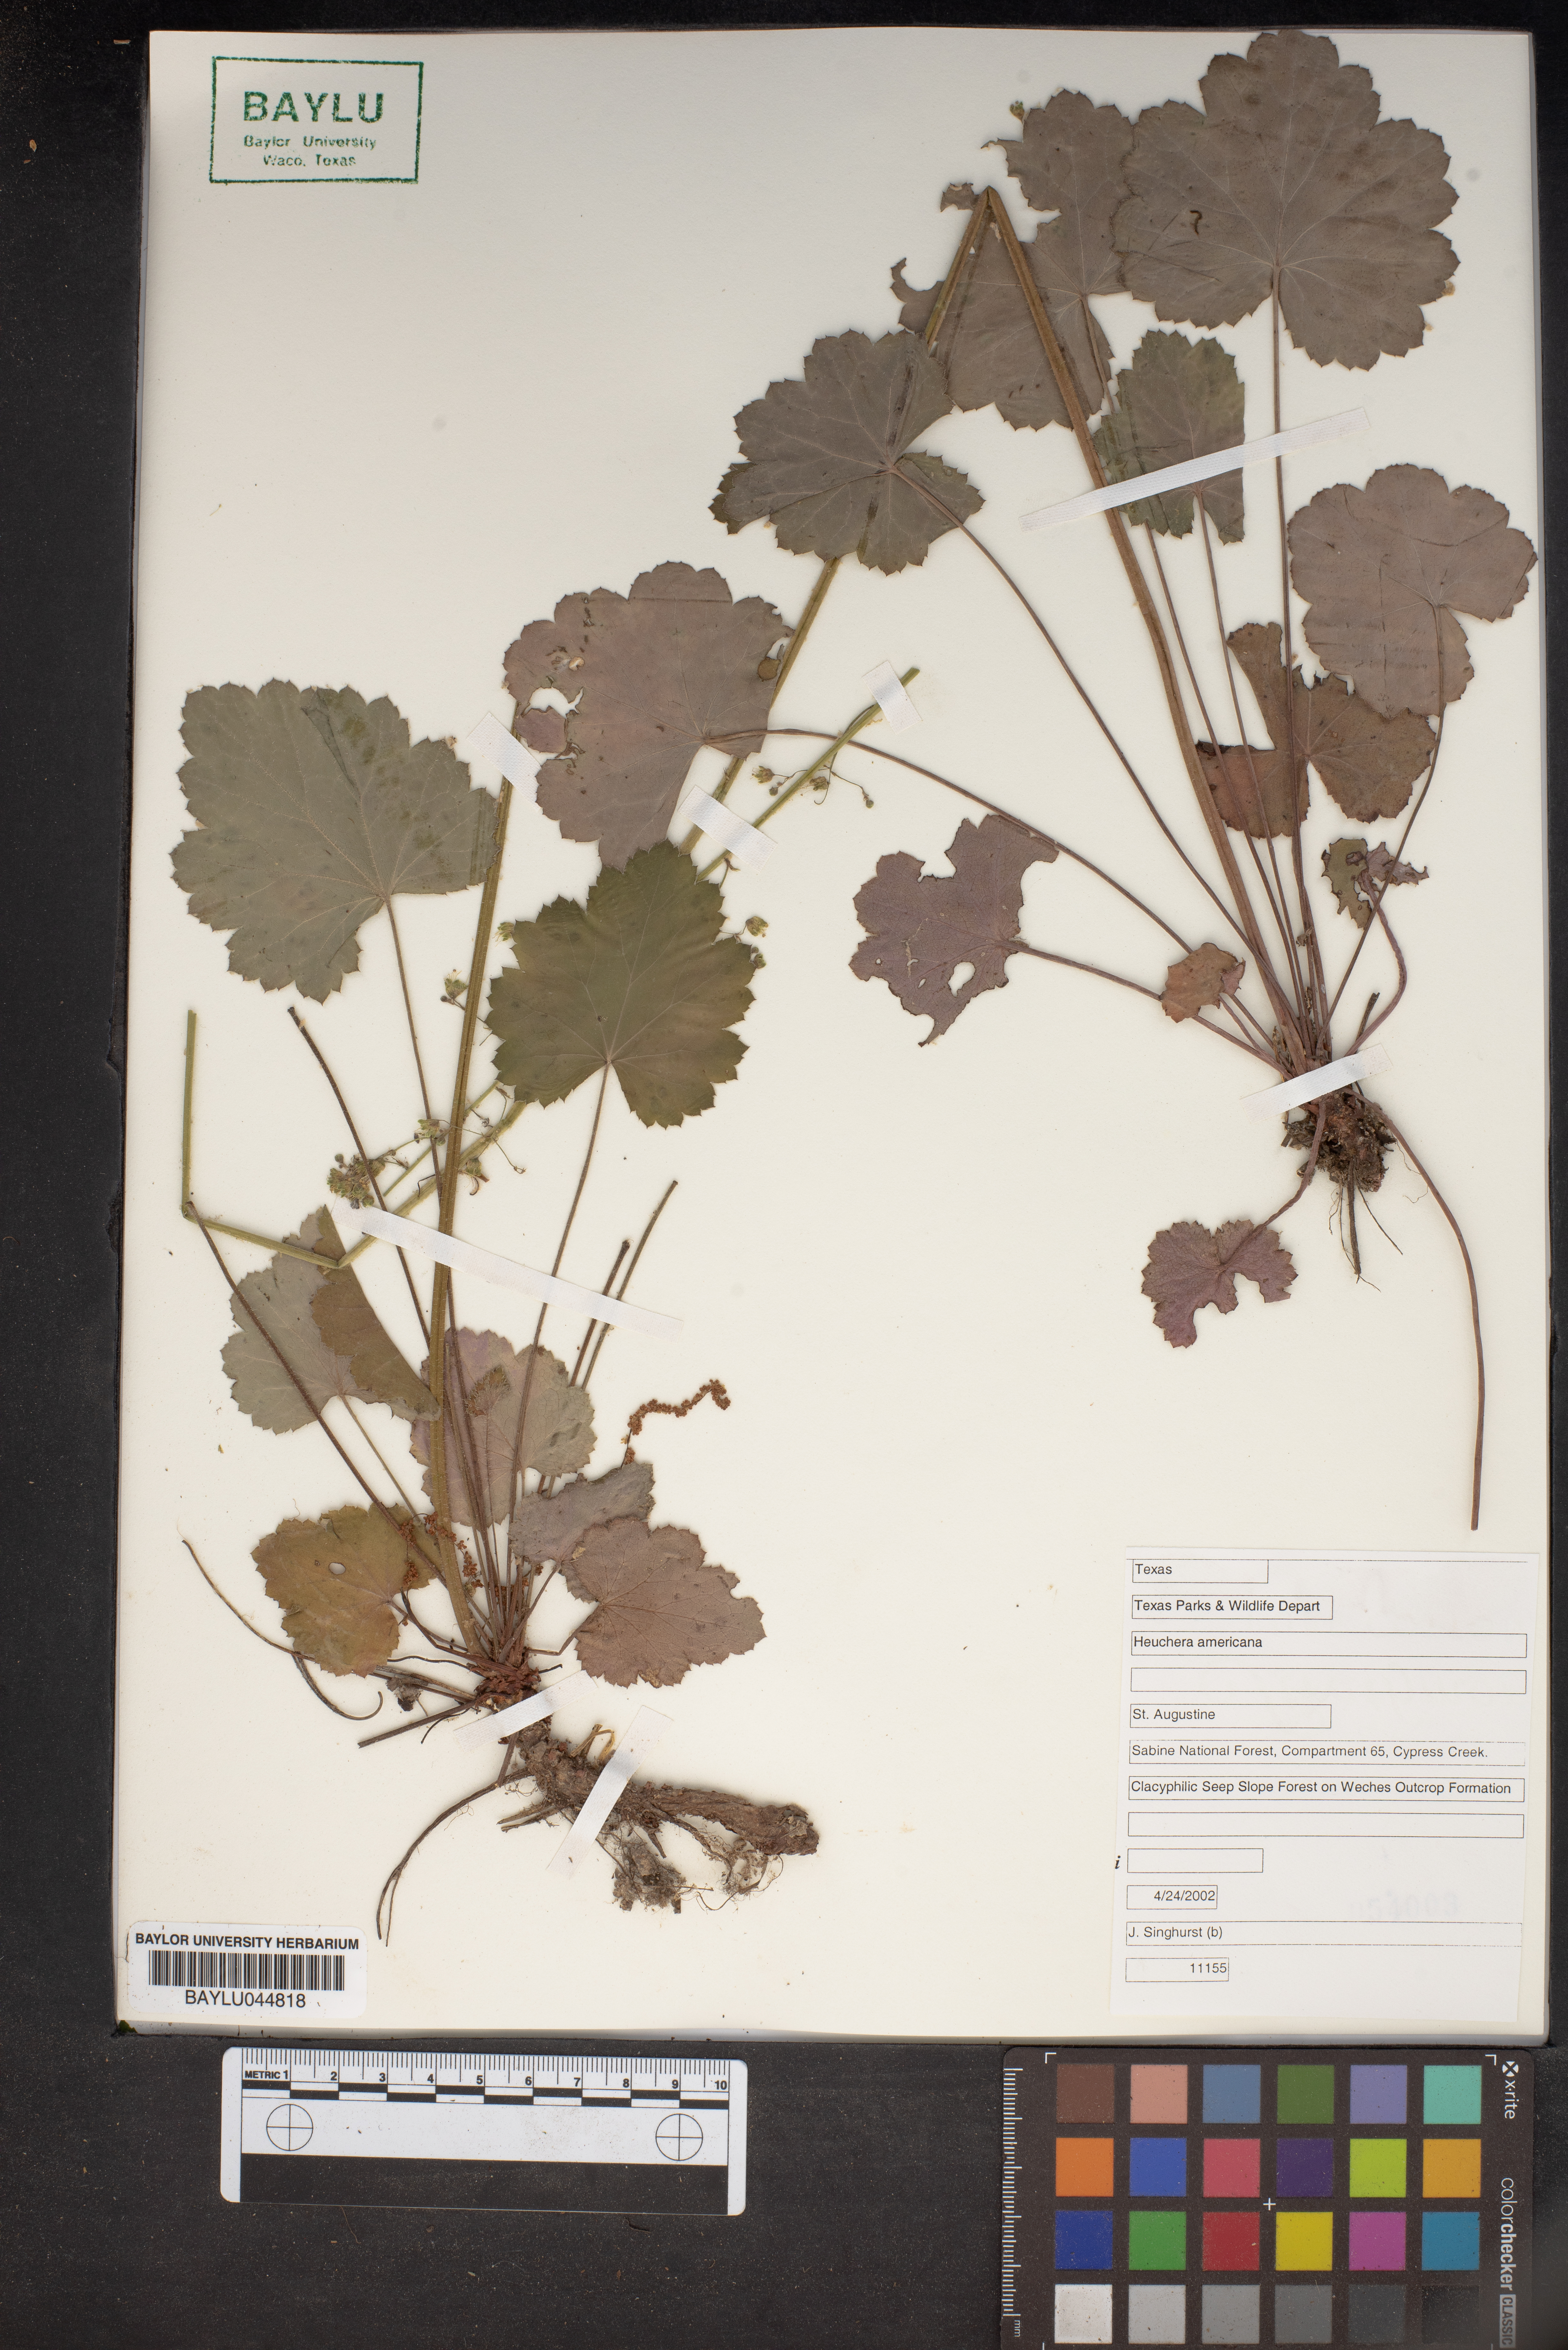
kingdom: Plantae
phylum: Tracheophyta
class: Magnoliopsida
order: Saxifragales
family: Saxifragaceae
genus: Heuchera
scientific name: Heuchera americana
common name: Alumroot
